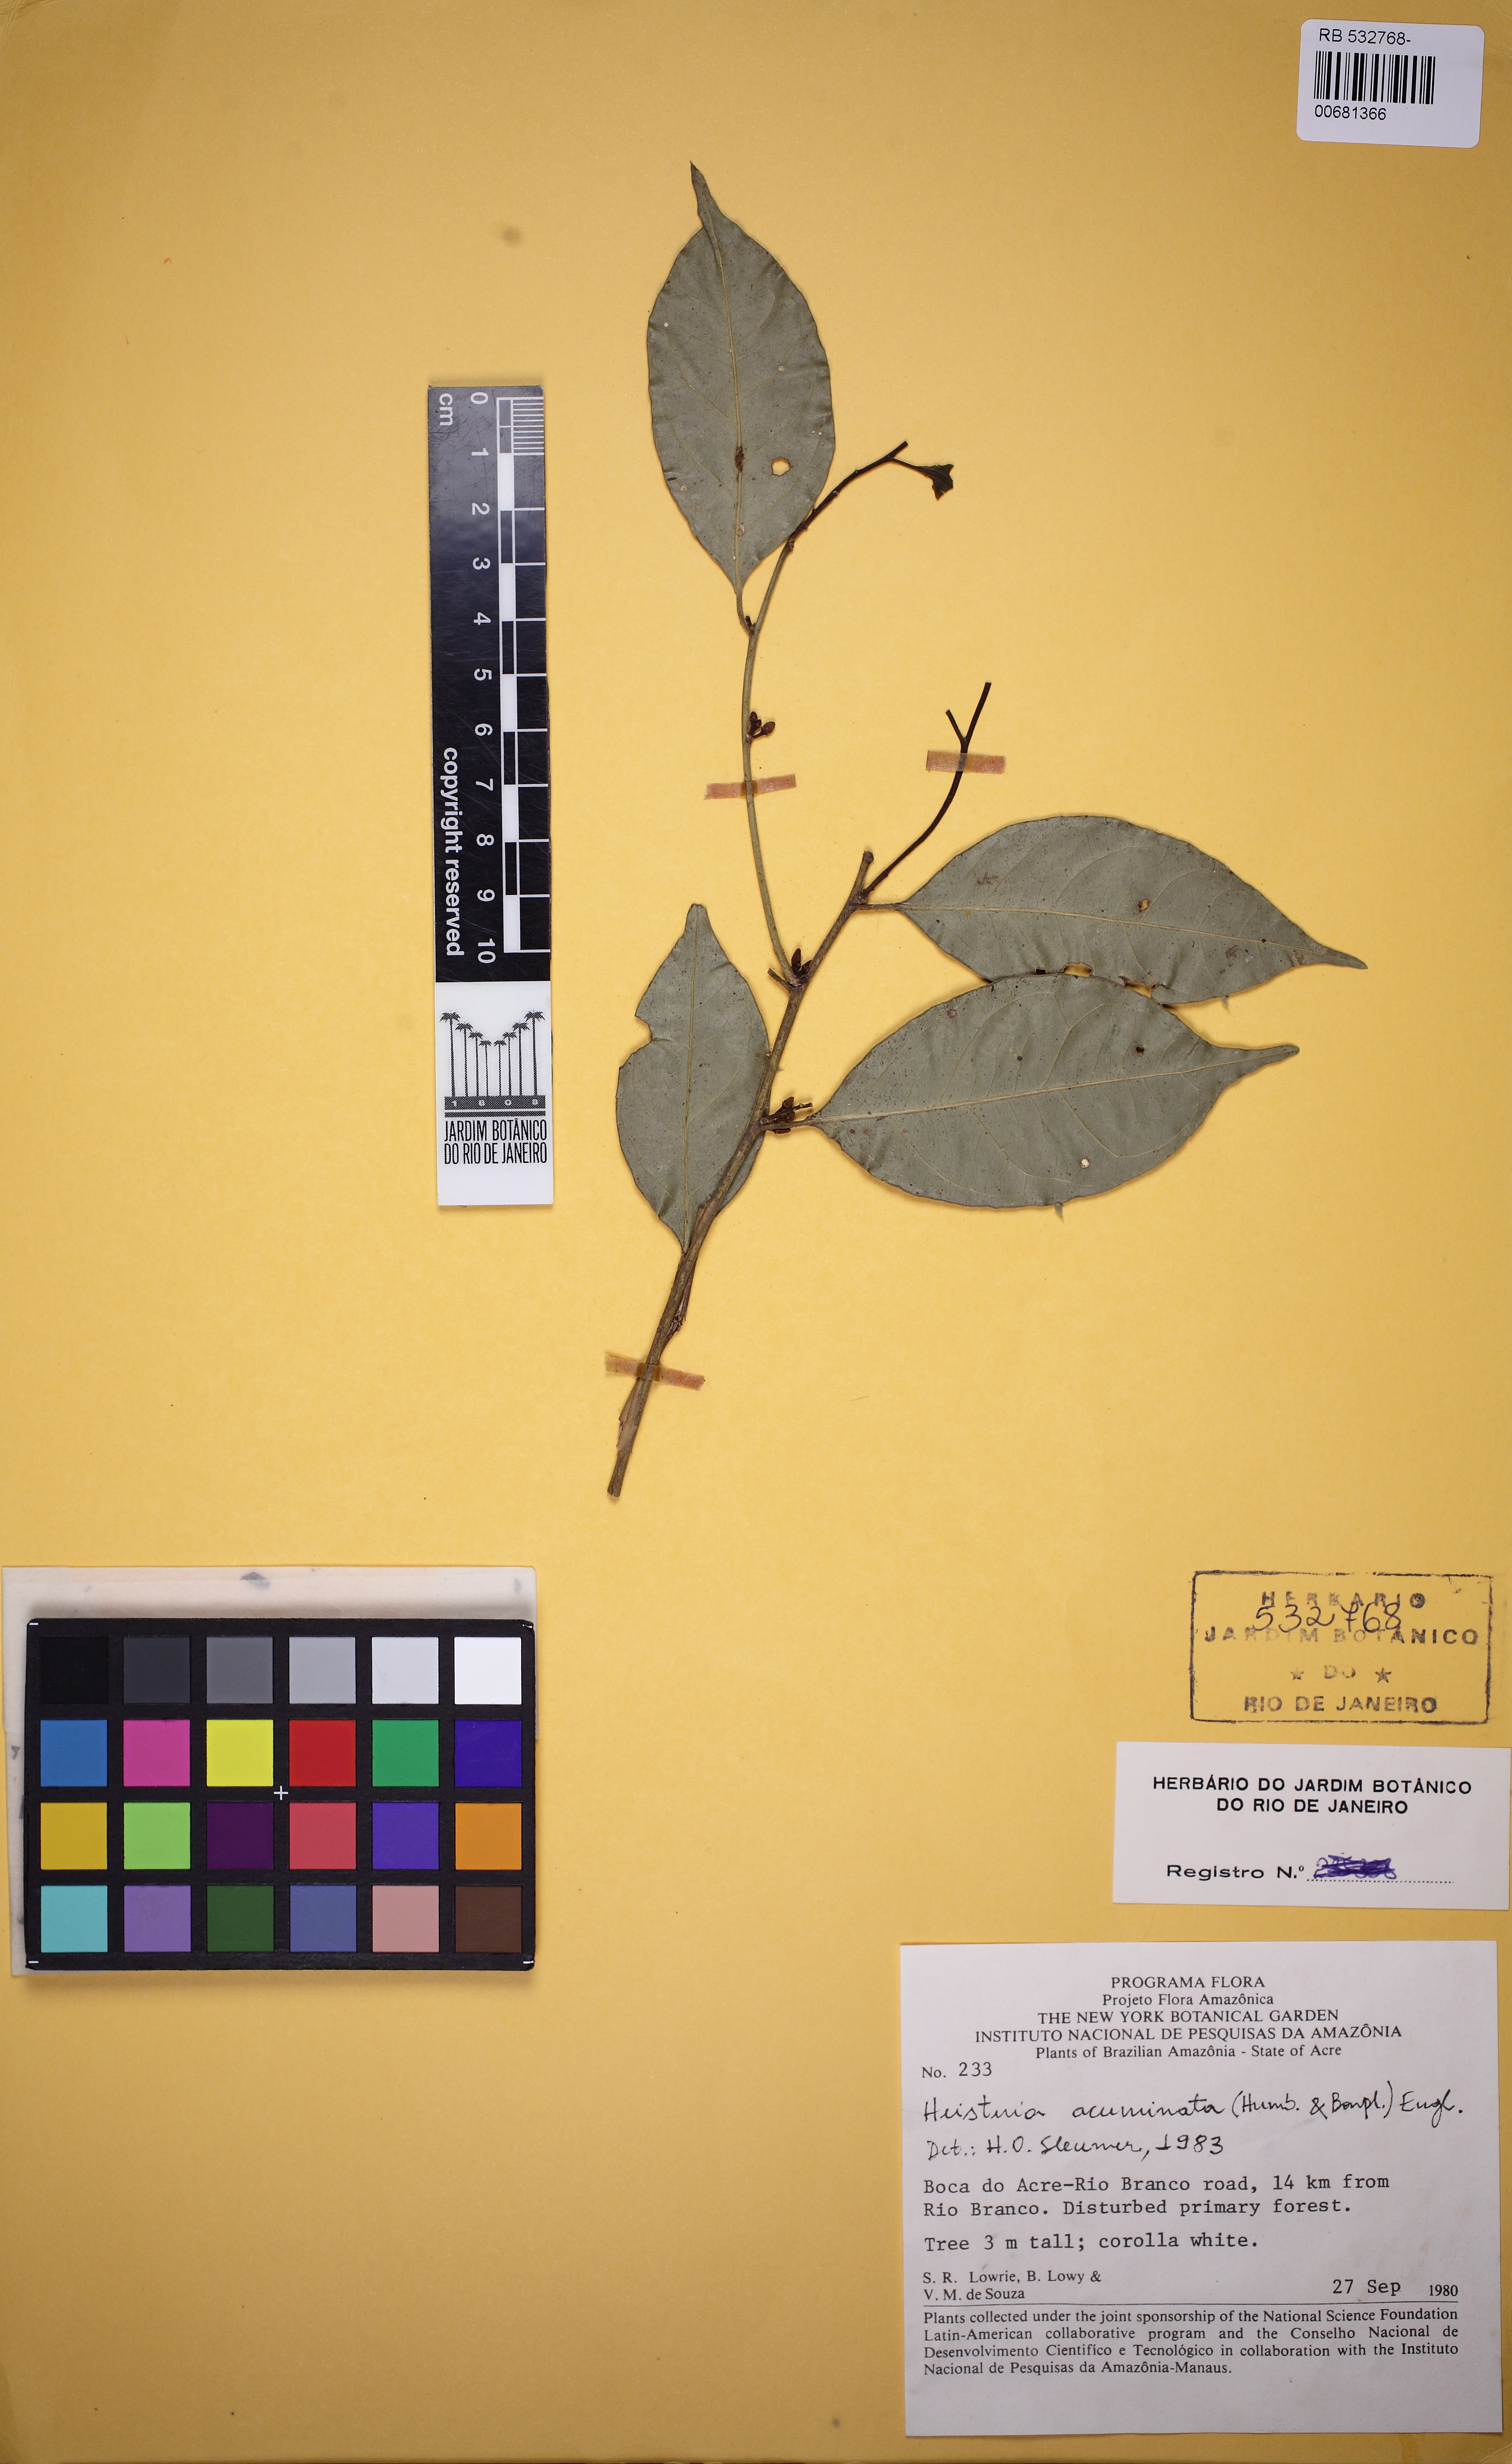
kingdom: Plantae
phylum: Tracheophyta
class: Magnoliopsida
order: Santalales
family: Erythropalaceae
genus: Heisteria
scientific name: Heisteria acuminata
